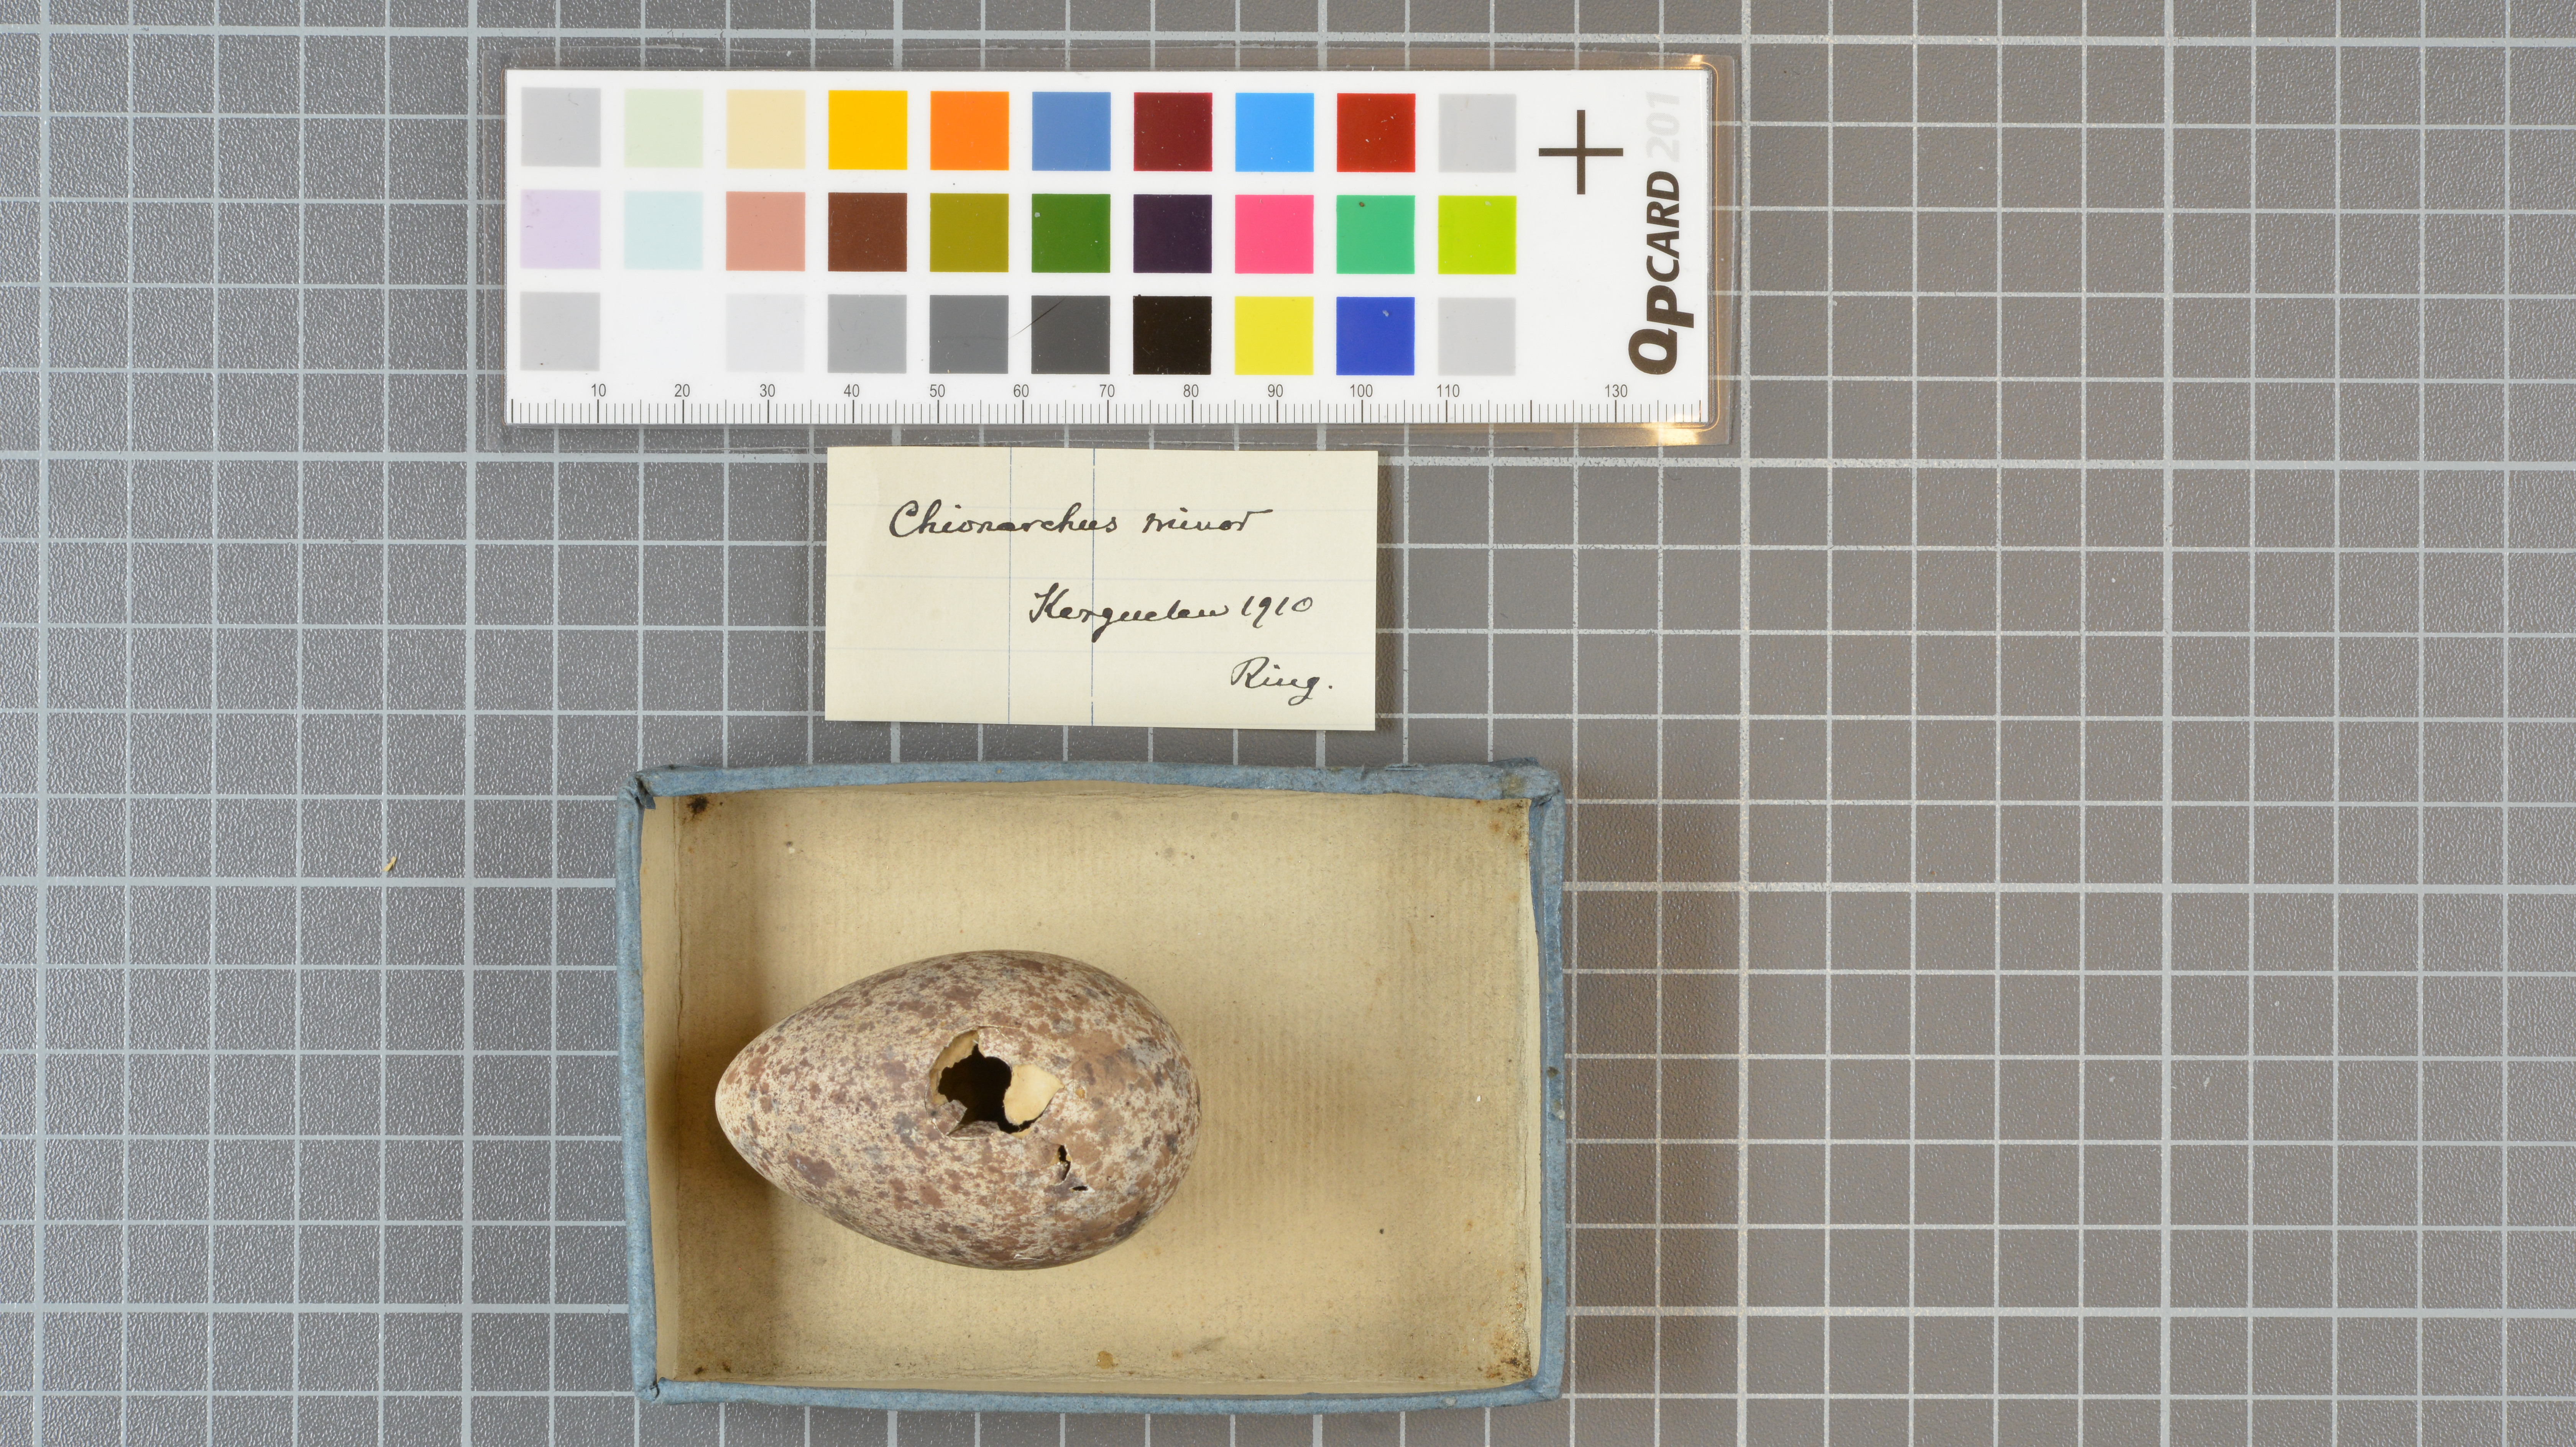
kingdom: Animalia
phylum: Chordata
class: Aves
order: Charadriiformes
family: Chionidae
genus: Chionis
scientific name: Chionis minor
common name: Black-faced sheathbill
